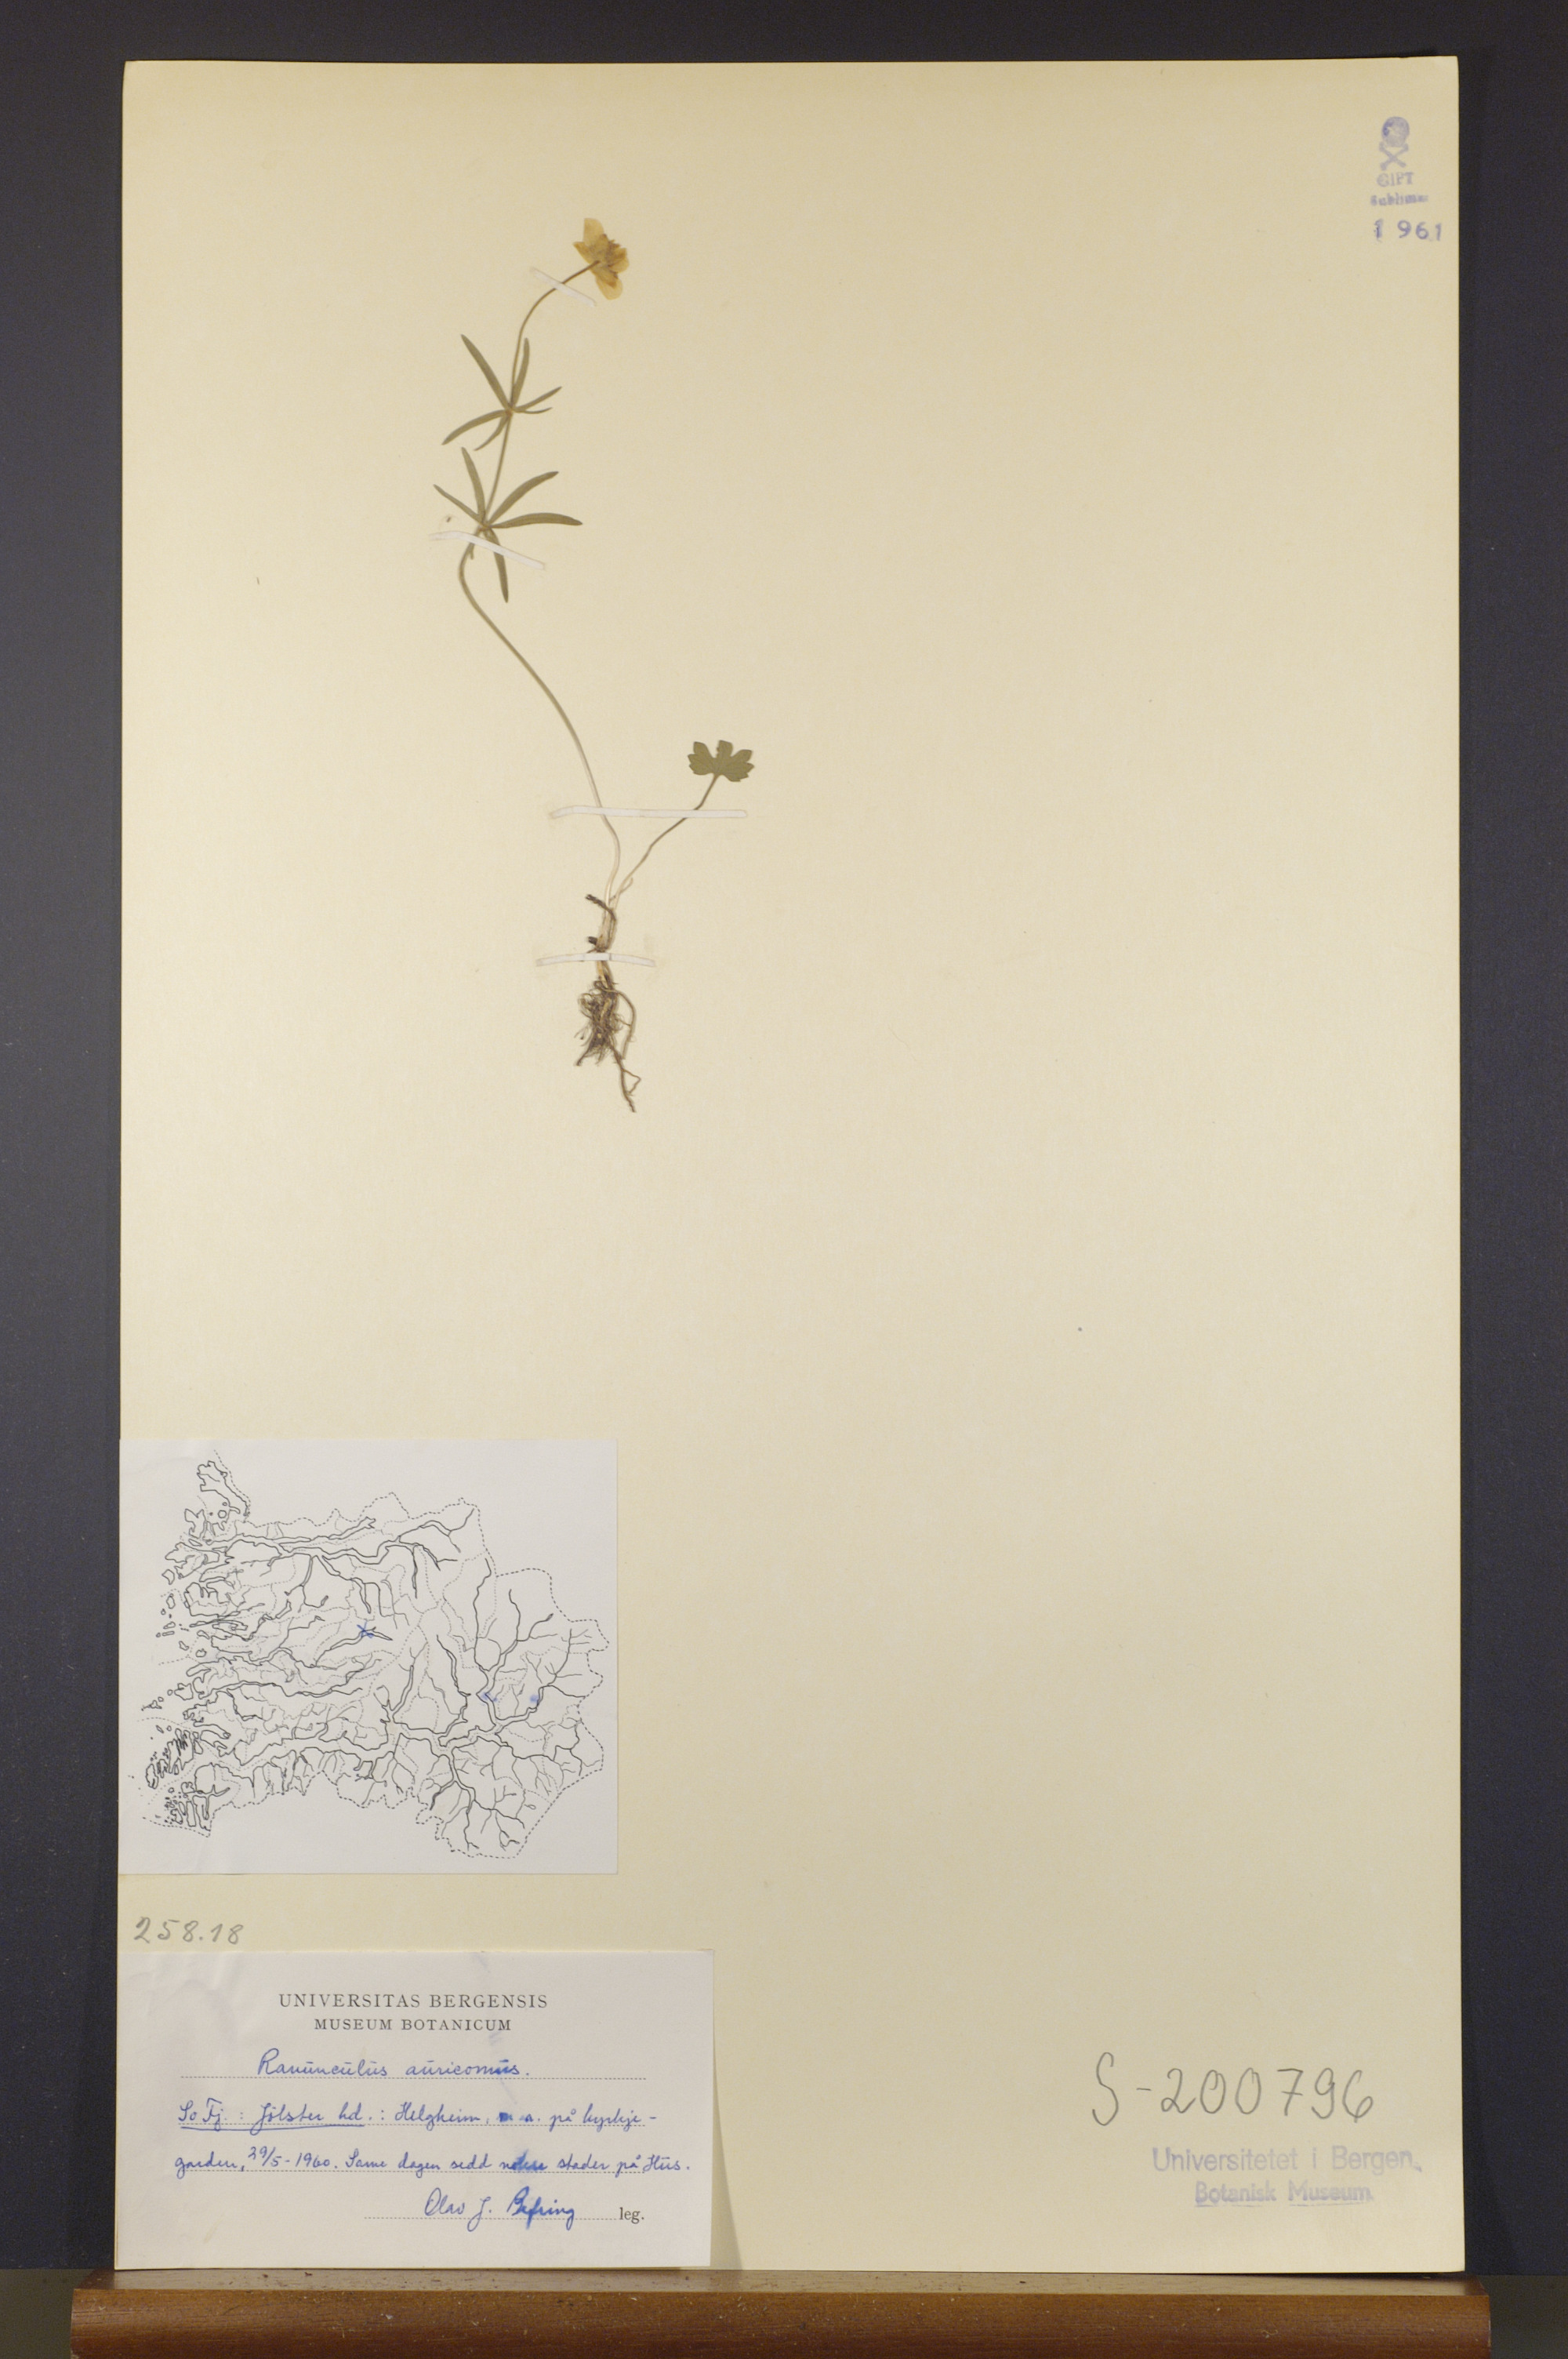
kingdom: Plantae
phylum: Tracheophyta
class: Magnoliopsida
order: Ranunculales
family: Ranunculaceae
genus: Ranunculus
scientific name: Ranunculus auricomus
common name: Goldilocks buttercup
